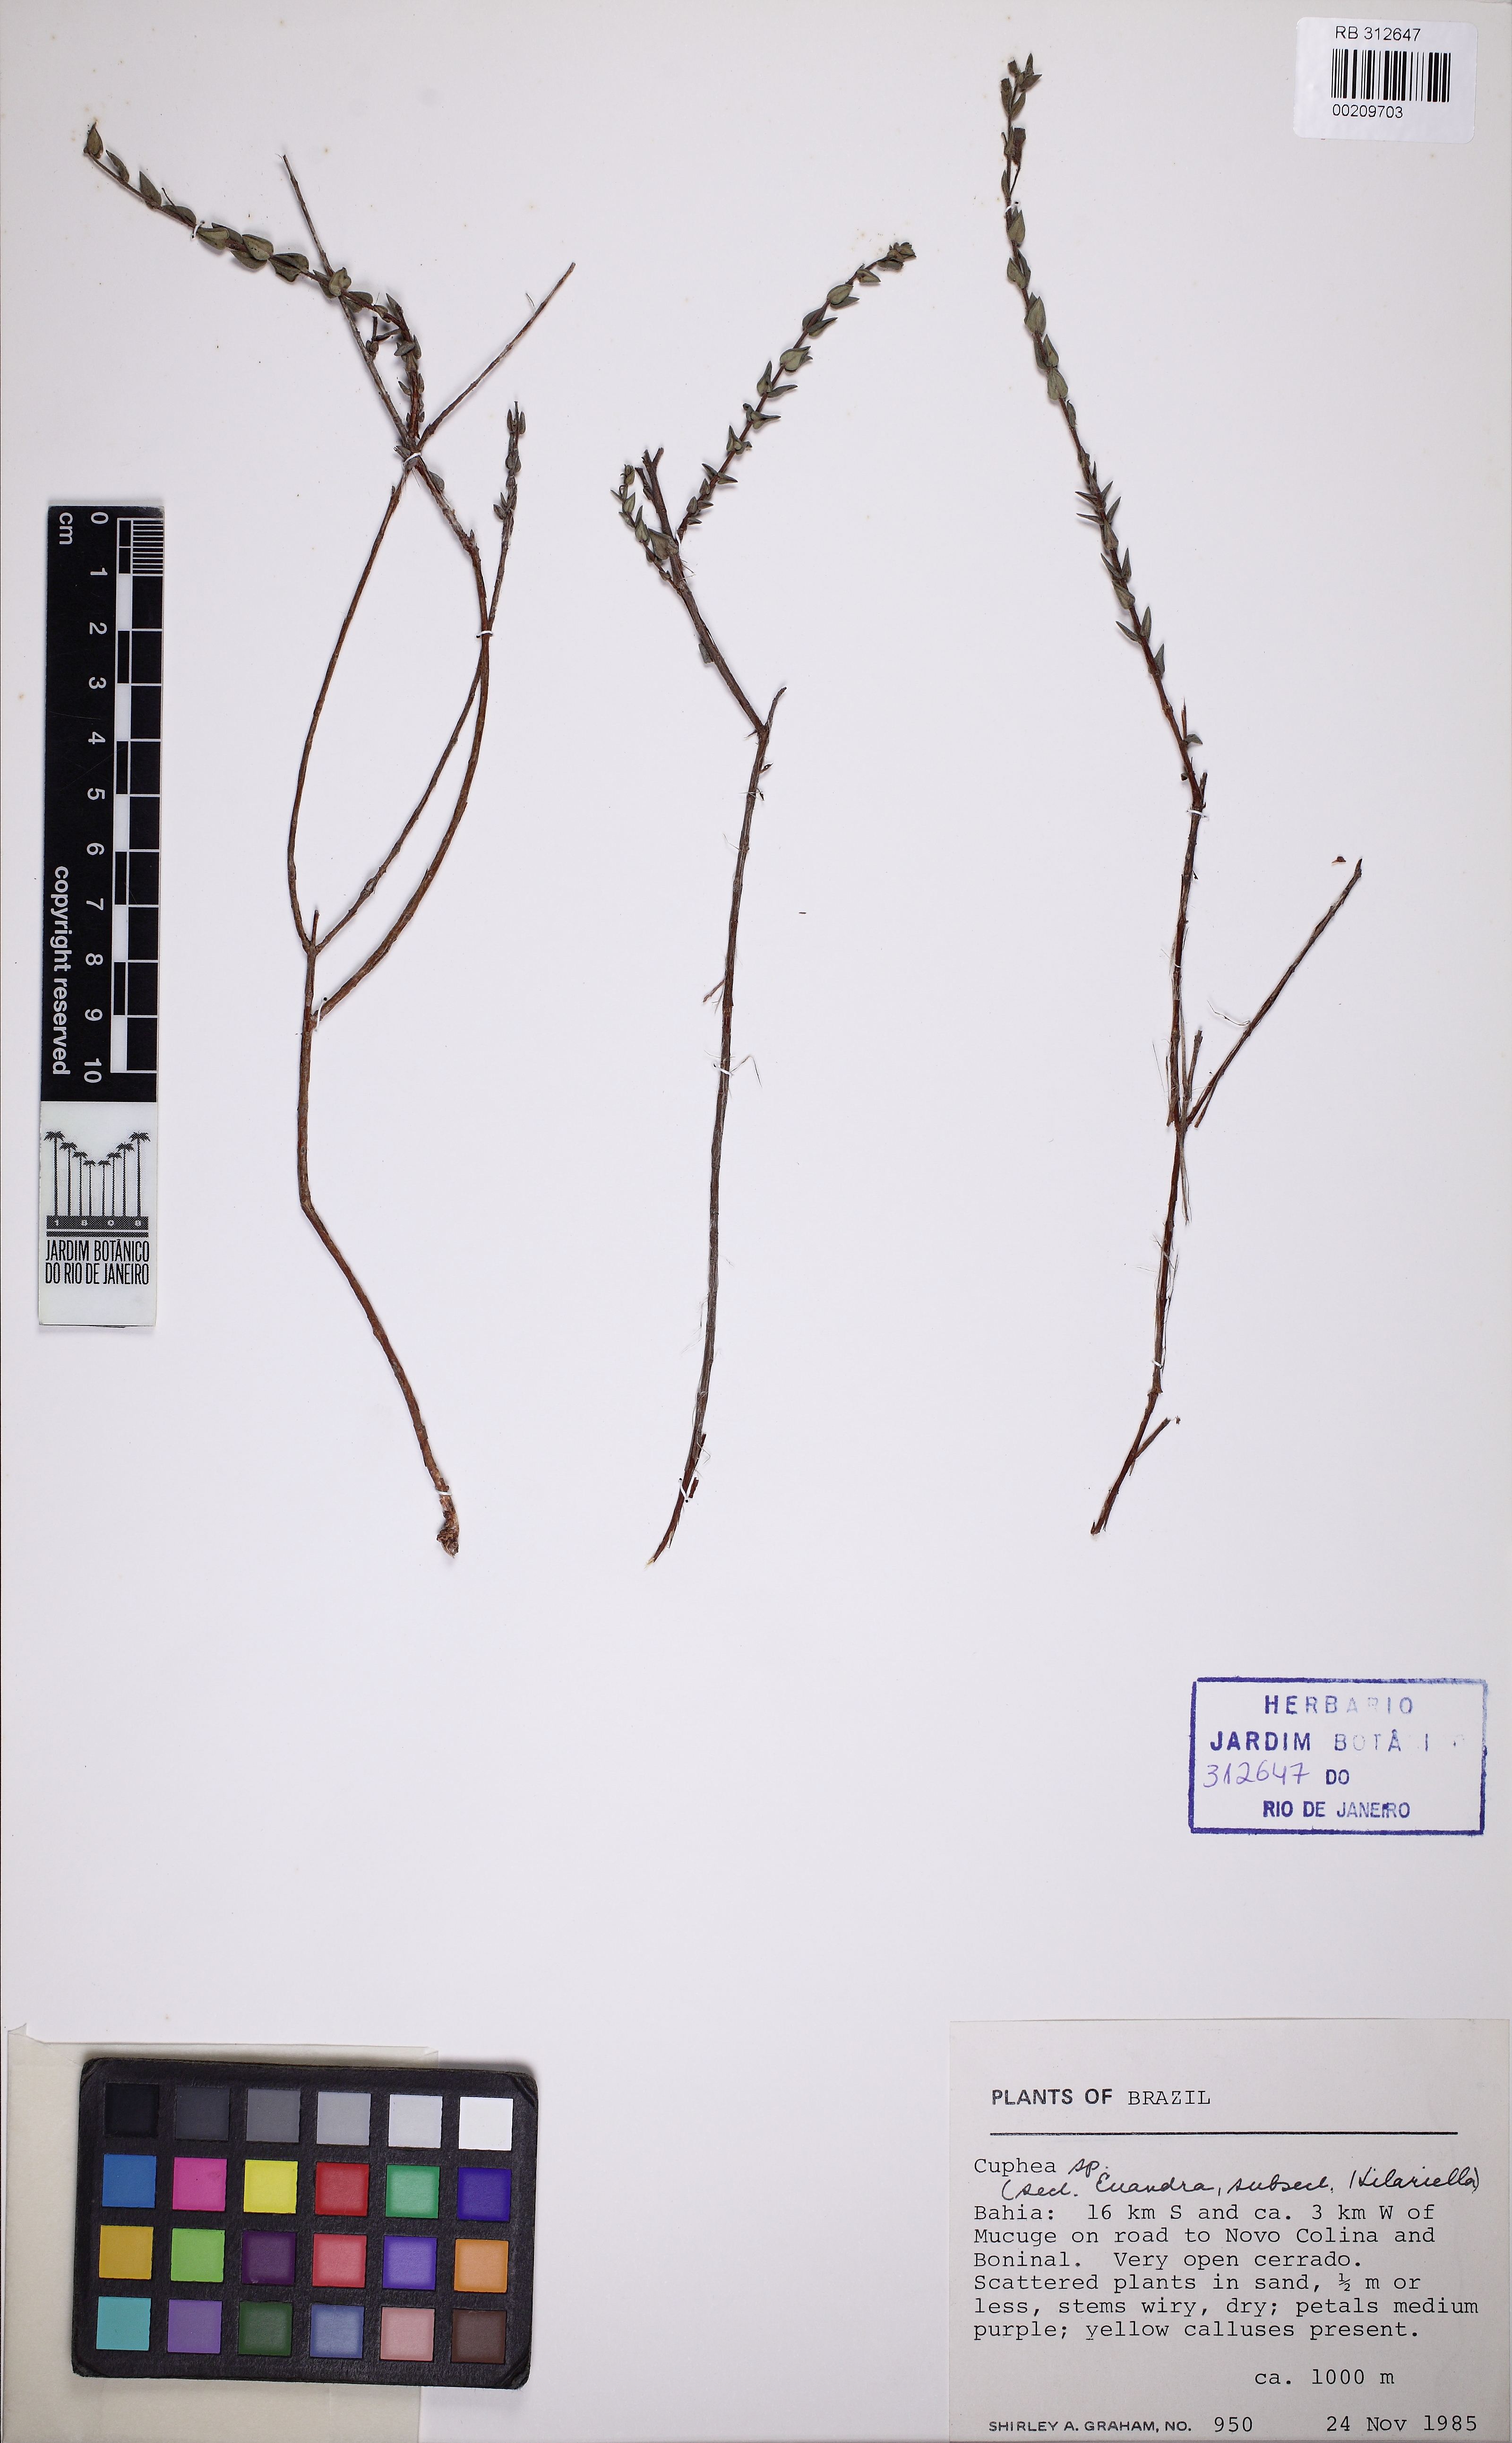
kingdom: Plantae
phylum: Tracheophyta
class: Magnoliopsida
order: Myrtales
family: Lythraceae
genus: Cuphea
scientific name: Cuphea brachypoda
